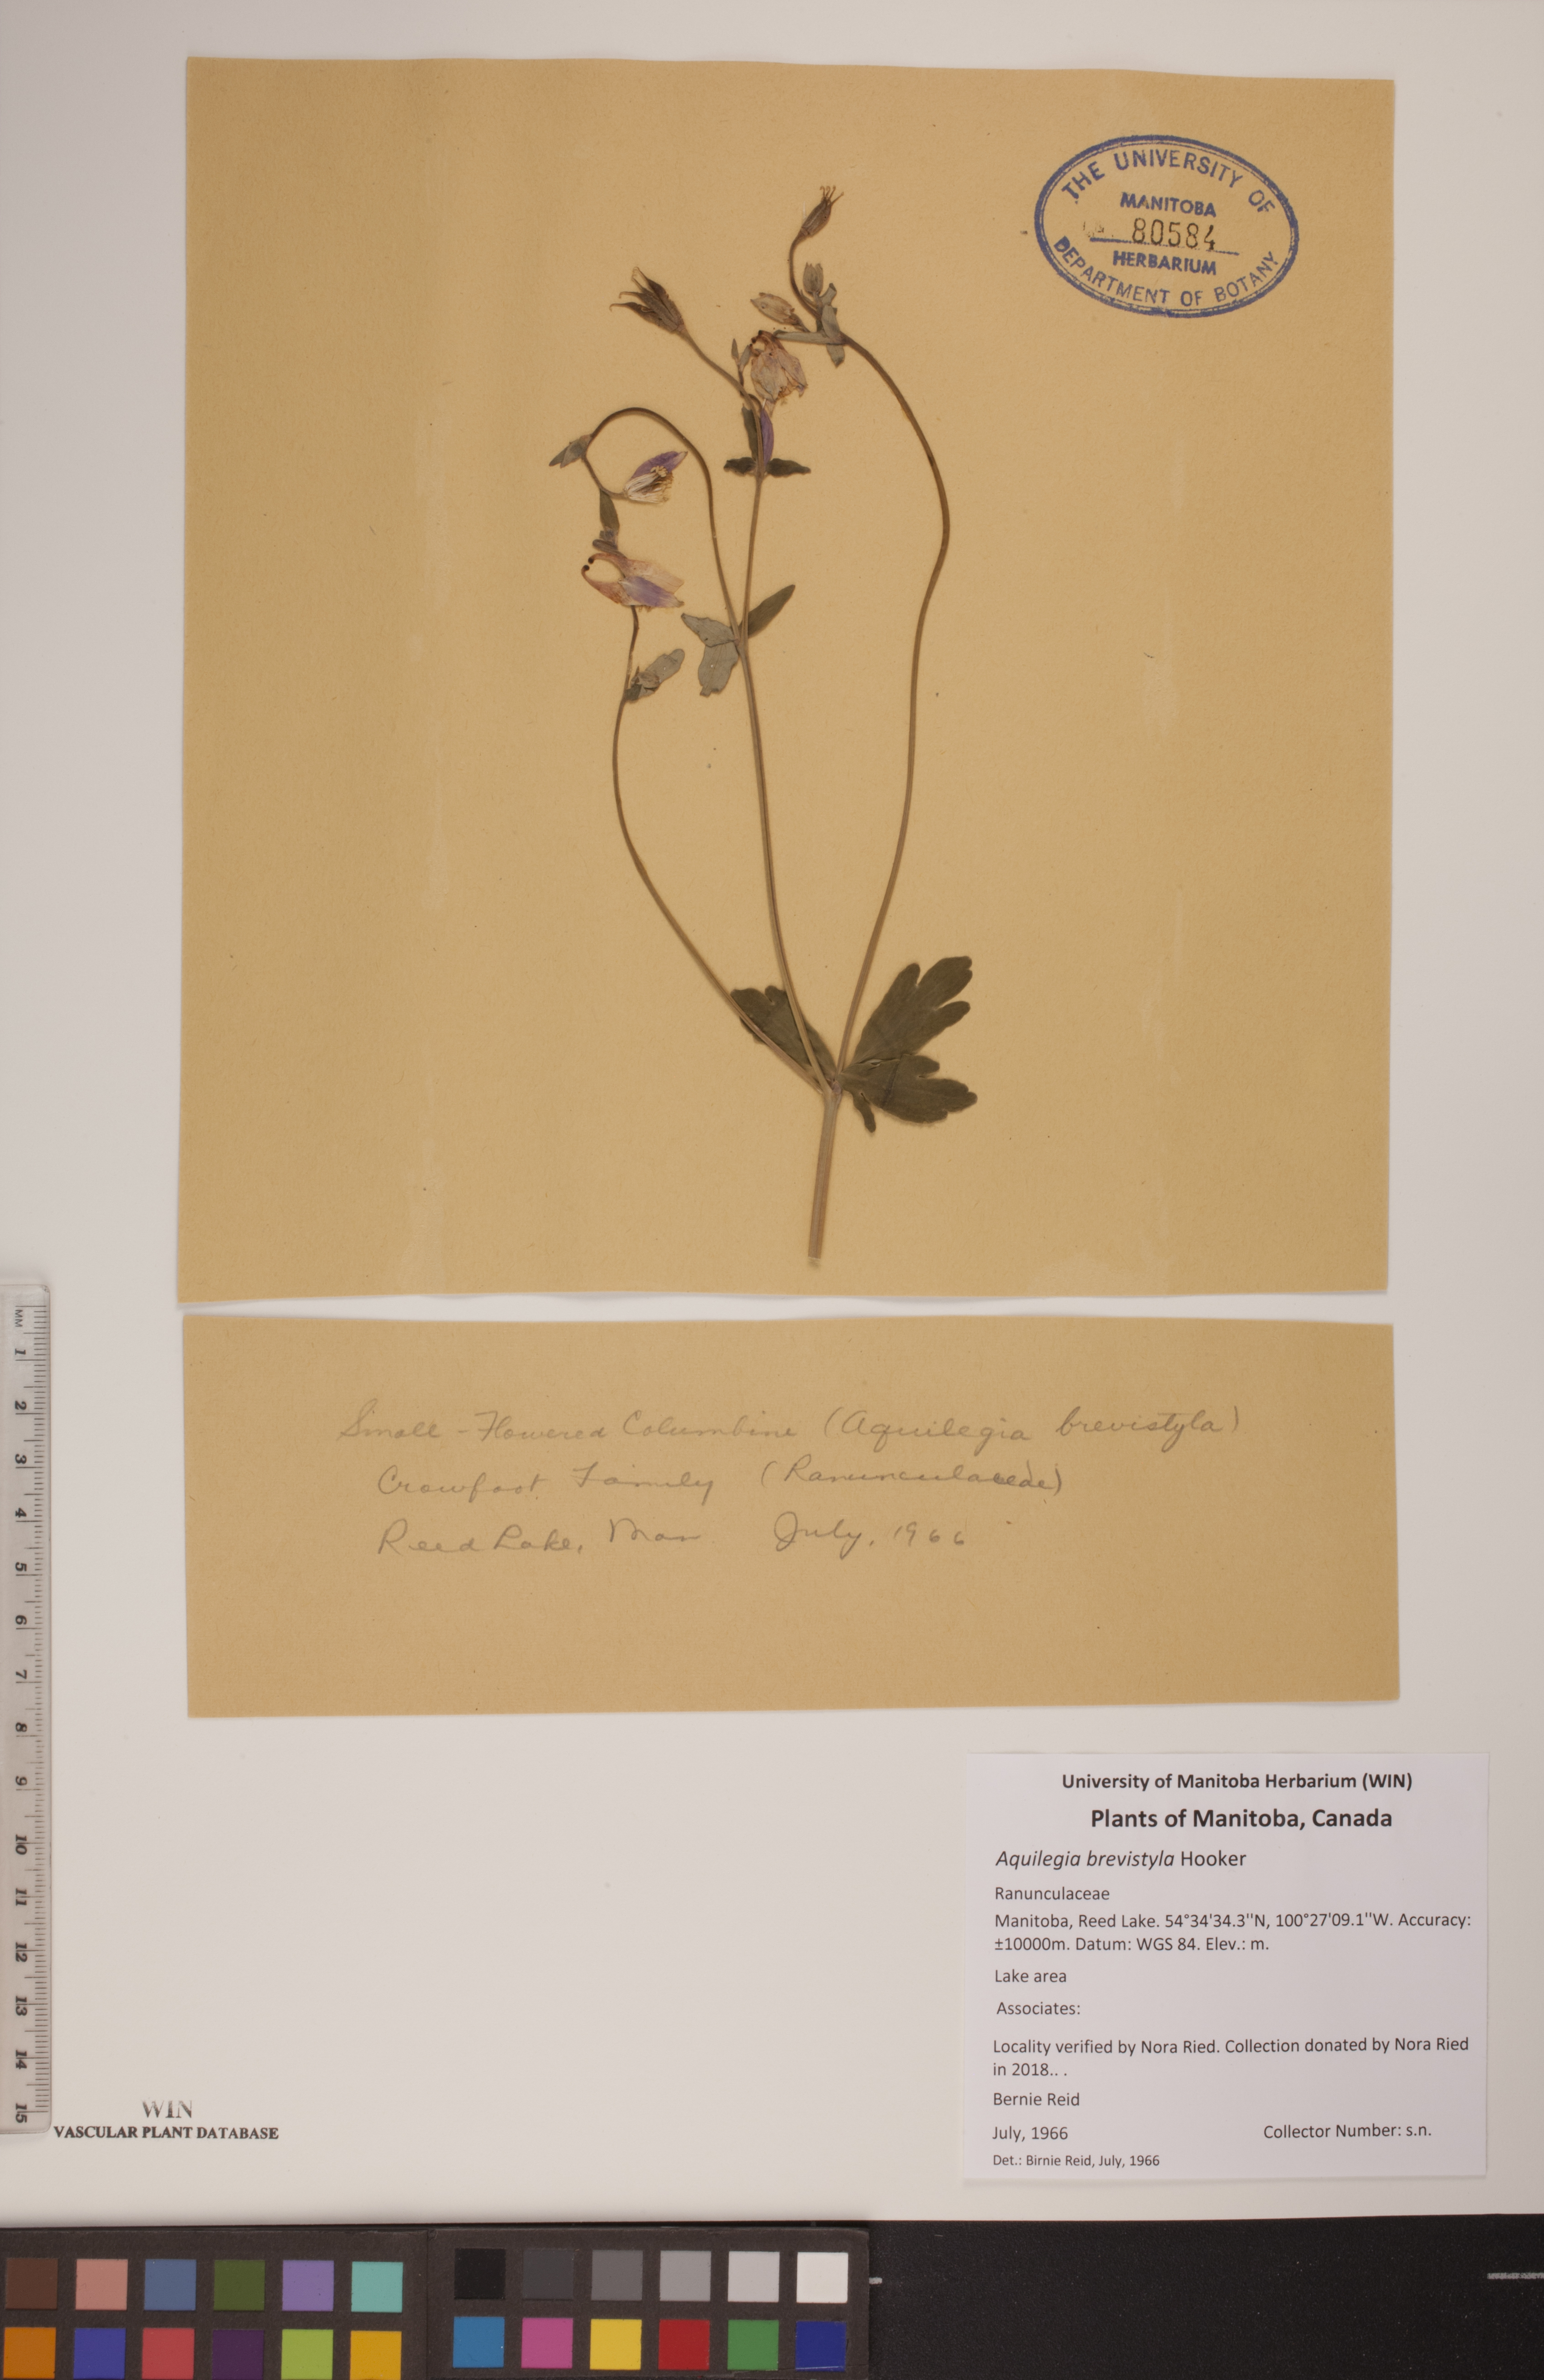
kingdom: Plantae
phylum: Tracheophyta
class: Magnoliopsida
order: Ranunculales
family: Ranunculaceae
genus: Aquilegia
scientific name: Aquilegia brevistyla
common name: Yukon columbine
